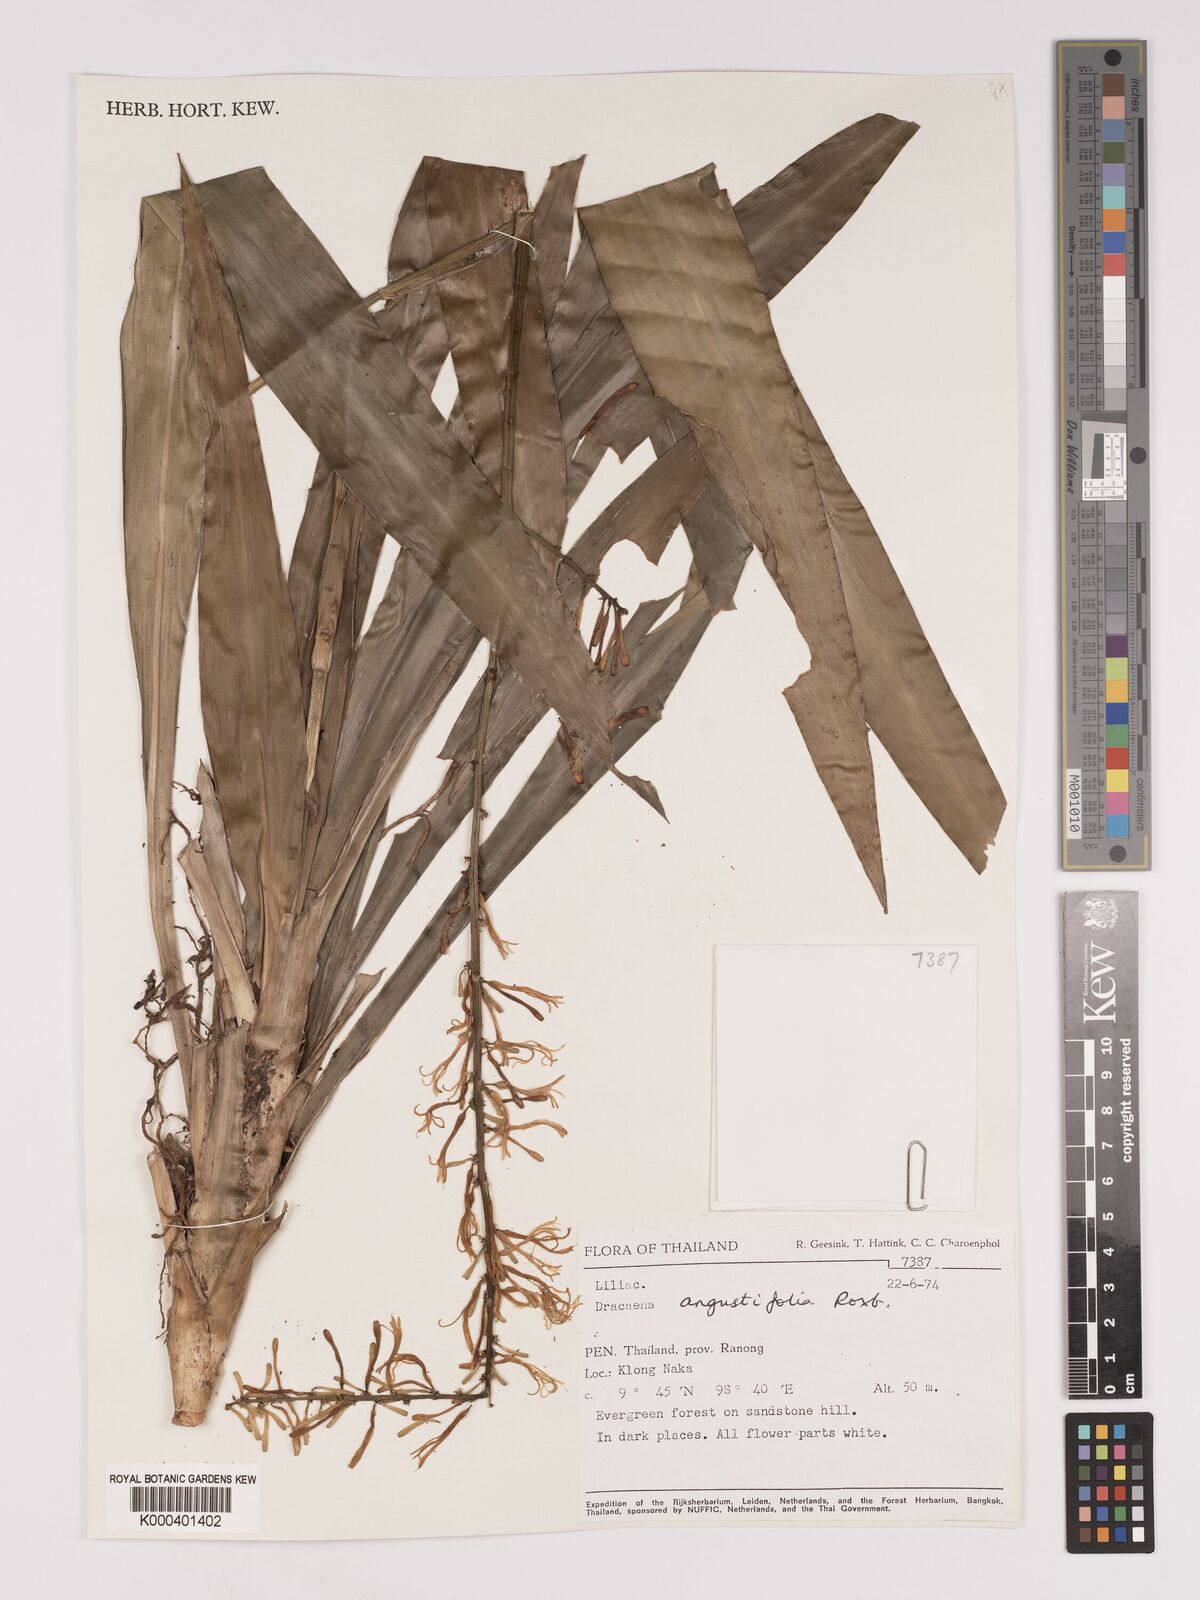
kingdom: Plantae
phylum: Tracheophyta
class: Liliopsida
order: Asparagales
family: Asparagaceae
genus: Dracaena
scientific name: Dracaena angustifolia
